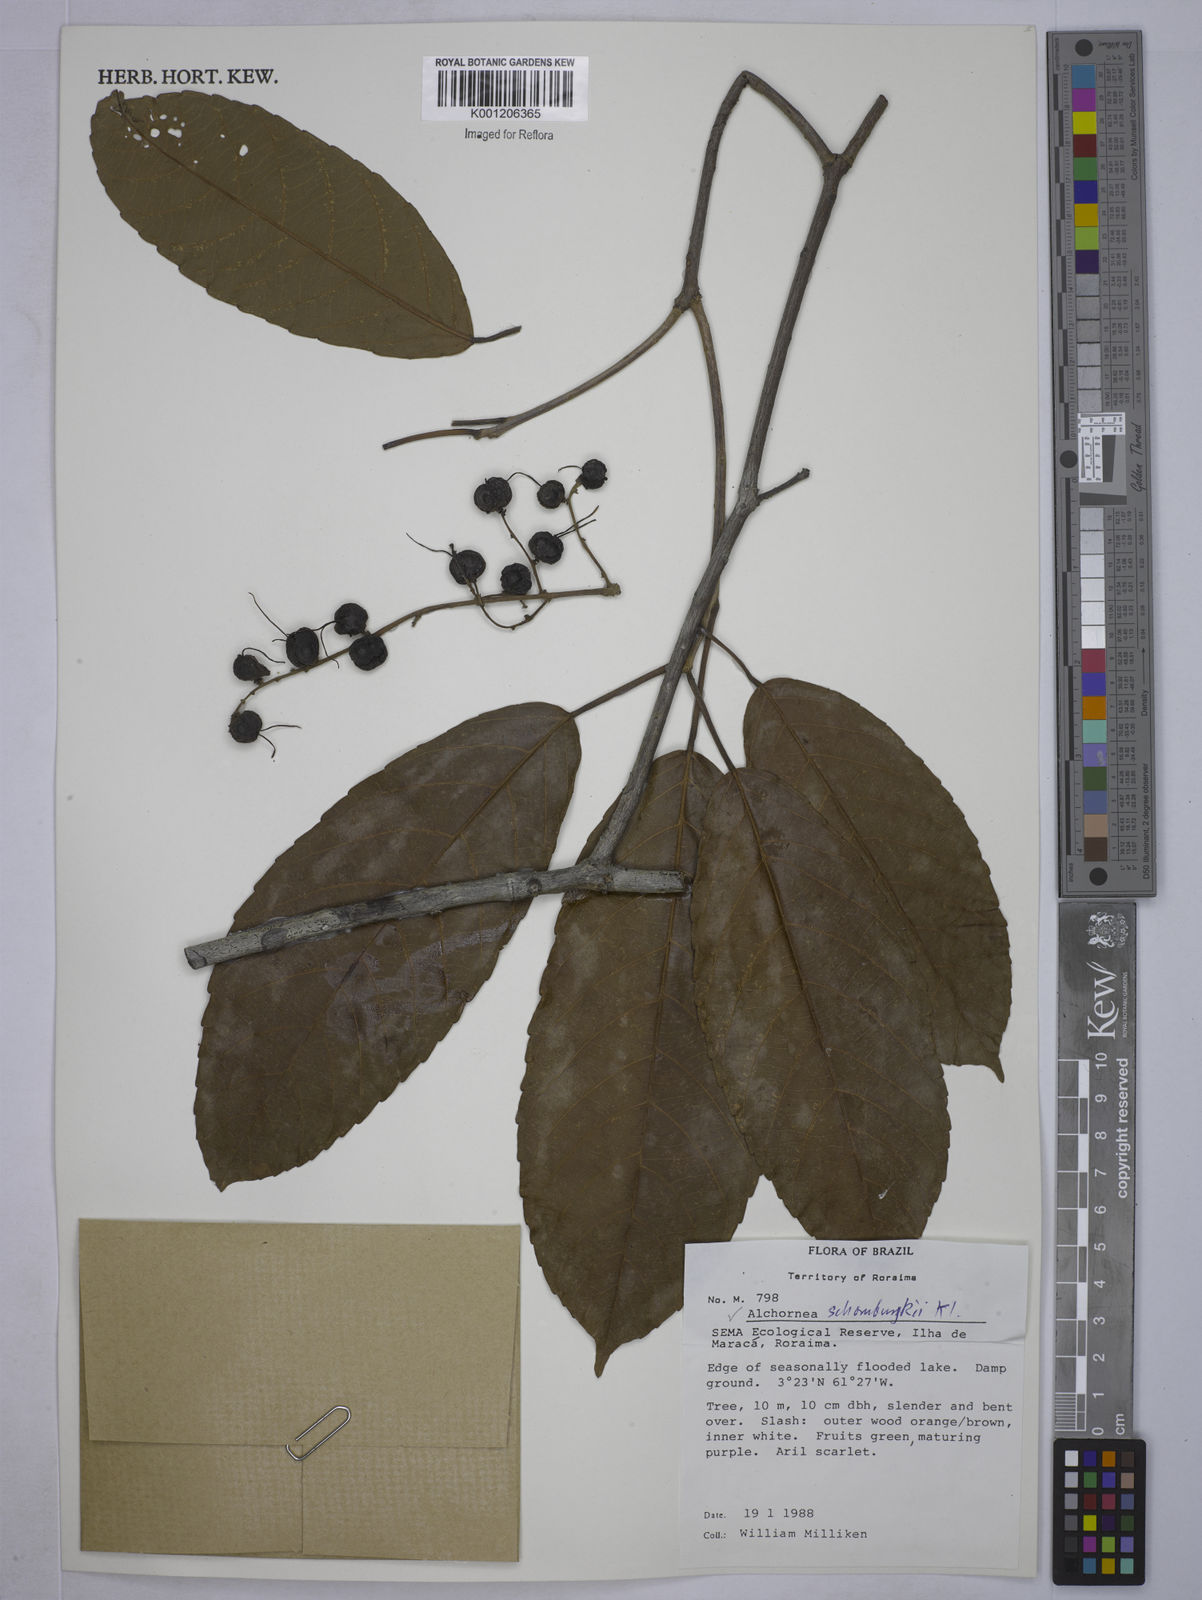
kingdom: Plantae
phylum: Tracheophyta
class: Magnoliopsida
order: Malpighiales
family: Euphorbiaceae
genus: Alchornea
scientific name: Alchornea discolor
